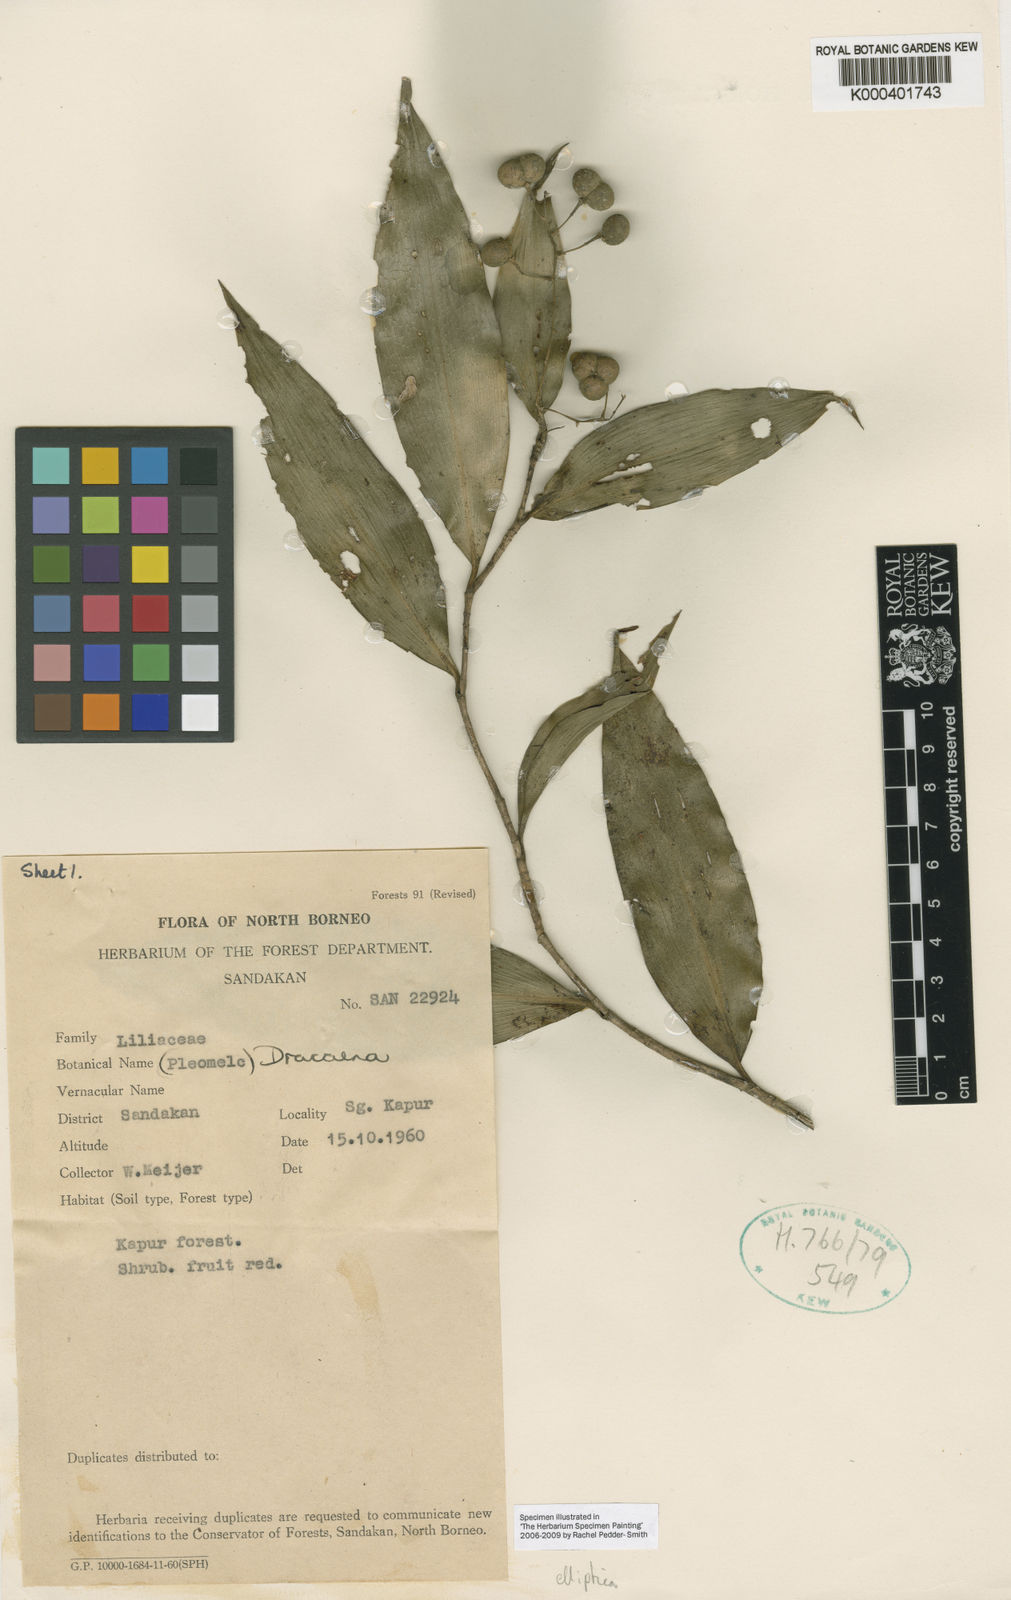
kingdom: Plantae
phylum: Tracheophyta
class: Liliopsida
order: Asparagales
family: Asparagaceae
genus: Dracaena
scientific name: Dracaena elliptica
